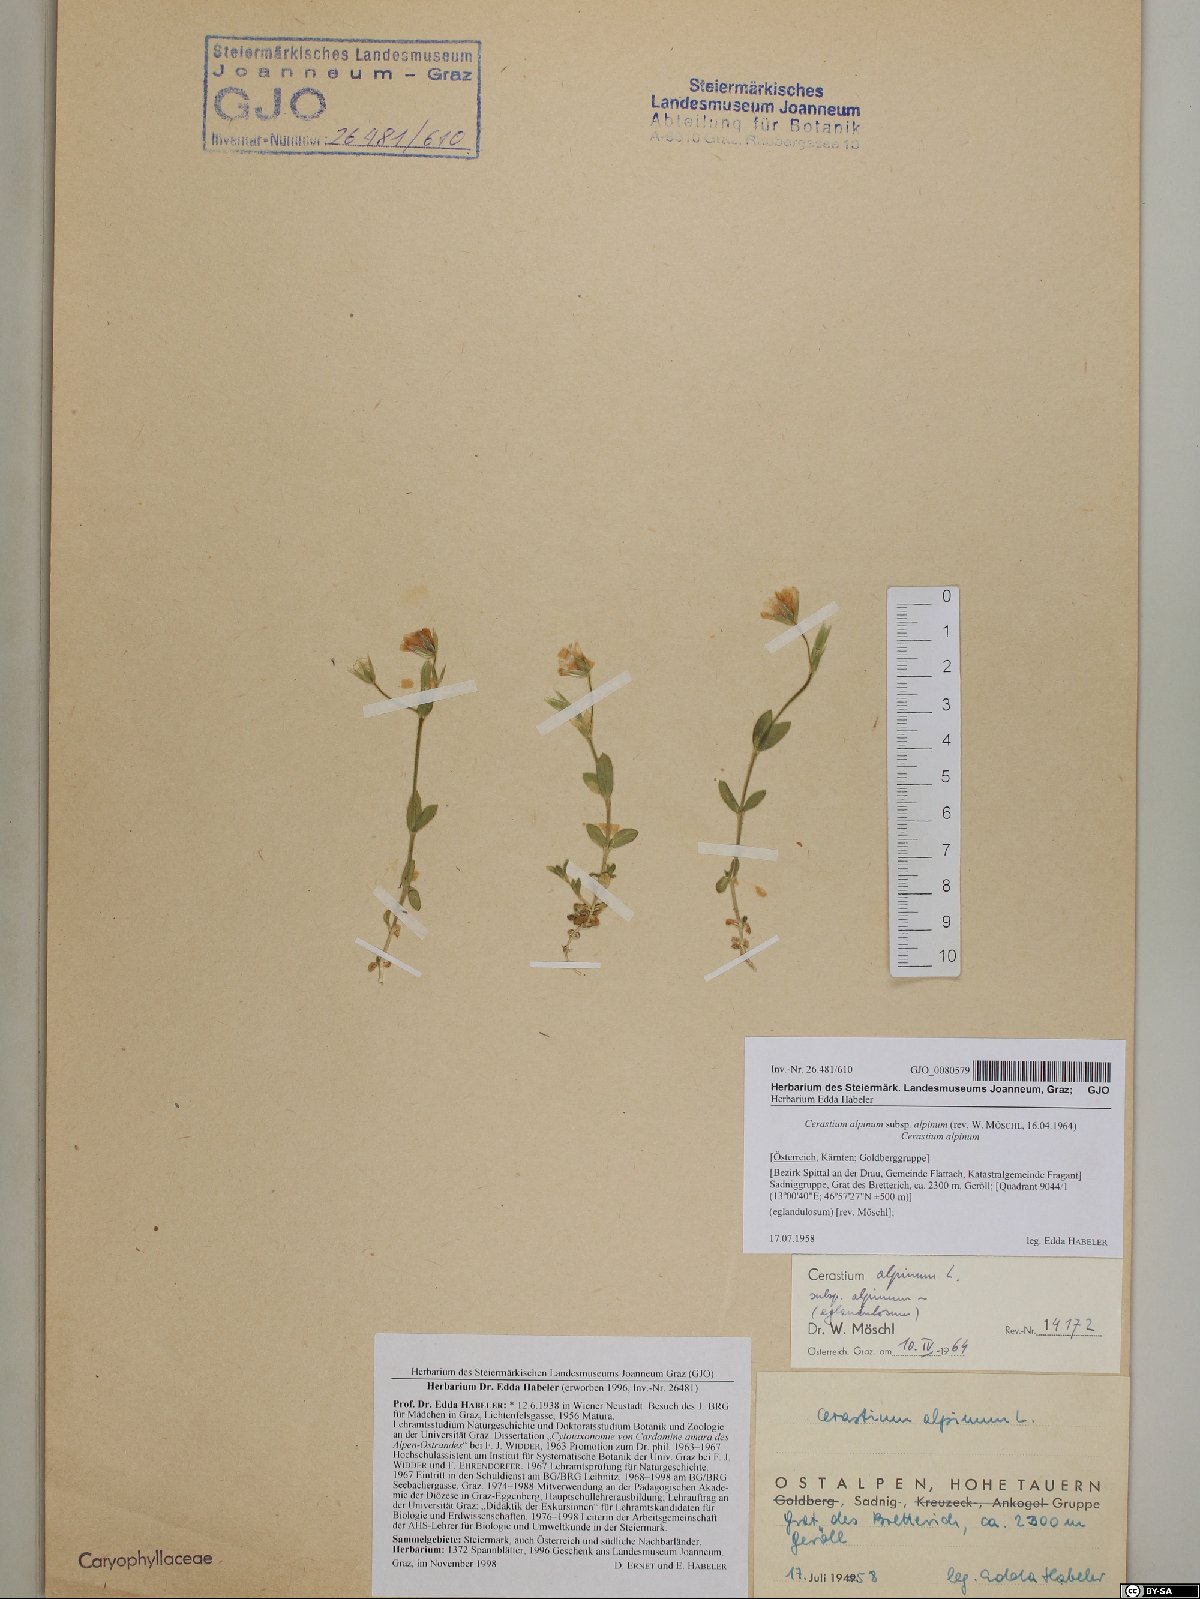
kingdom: Plantae
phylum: Tracheophyta
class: Magnoliopsida
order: Caryophyllales
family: Caryophyllaceae
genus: Cerastium
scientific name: Cerastium alpinum
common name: Alpine mouse-ear
